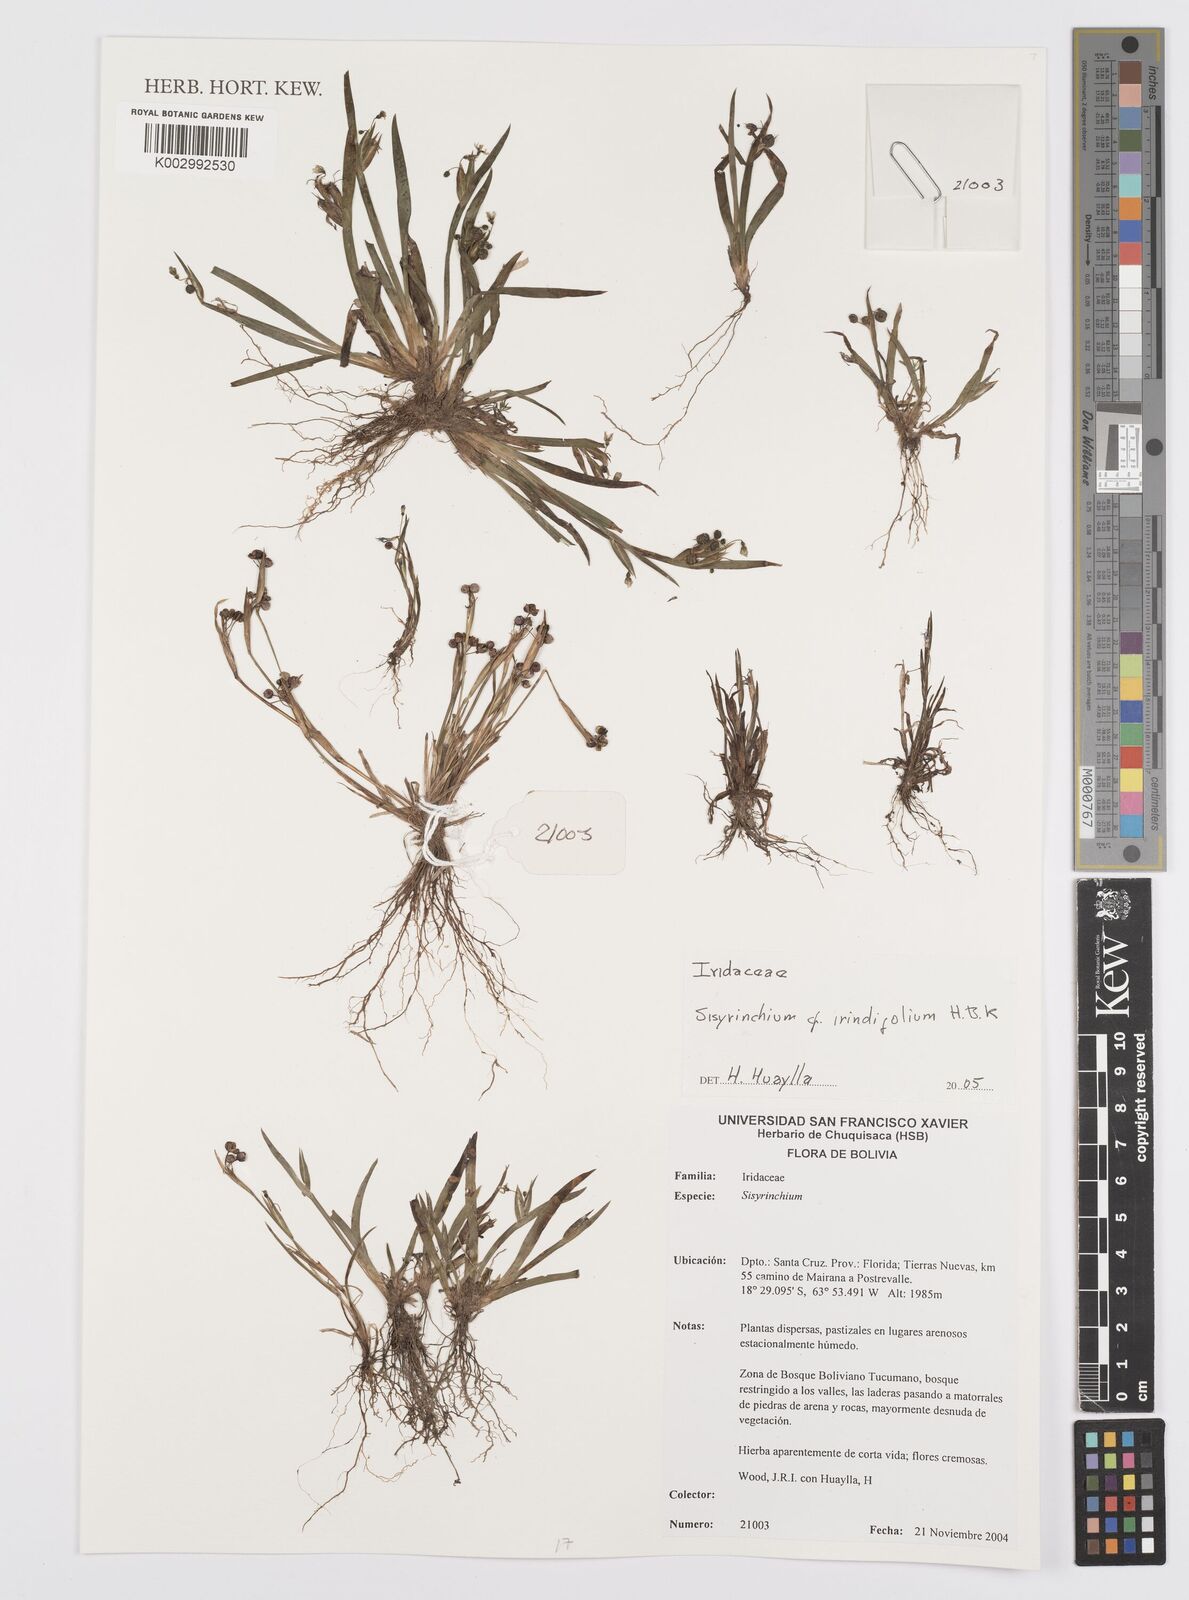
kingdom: Plantae
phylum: Tracheophyta
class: Liliopsida
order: Asparagales
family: Iridaceae
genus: Sisyrinchium
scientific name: Sisyrinchium micranthum
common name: Bermuda pigroot
